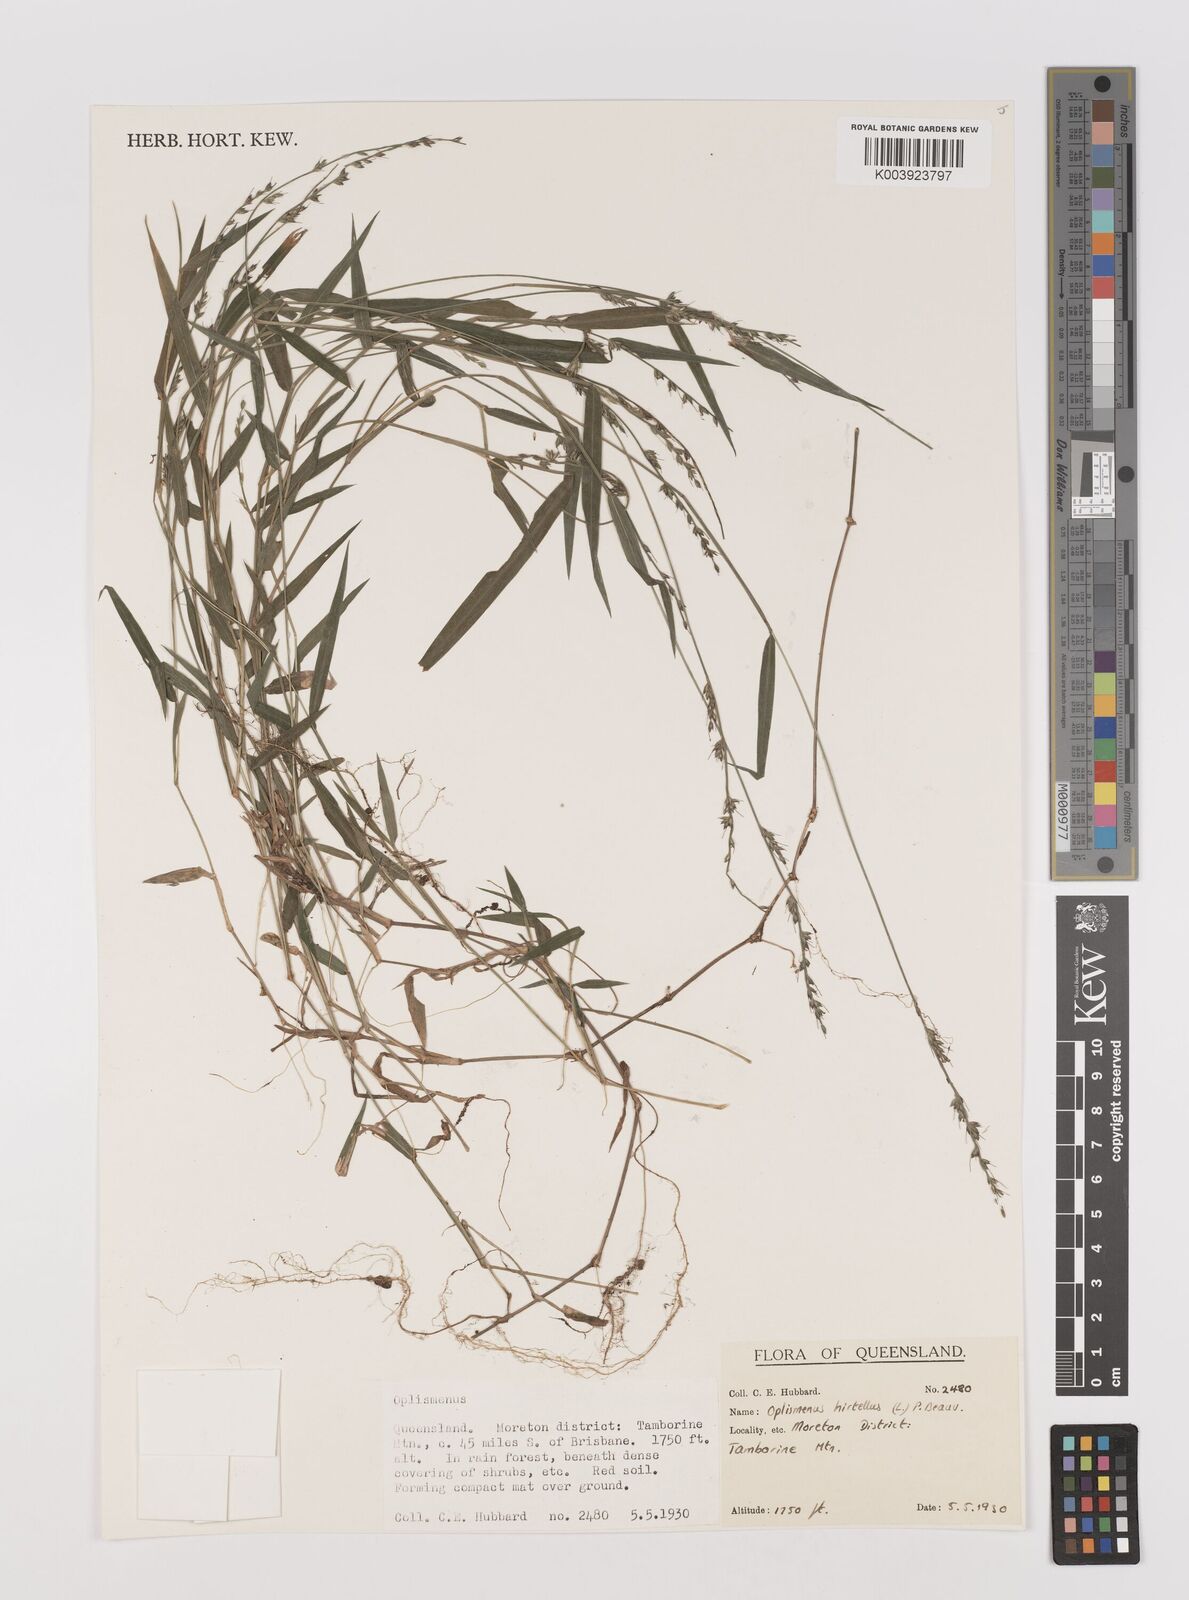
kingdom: Plantae
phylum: Tracheophyta
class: Liliopsida
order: Poales
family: Poaceae
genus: Oplismenus
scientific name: Oplismenus hirtellus
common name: Basketgrass
